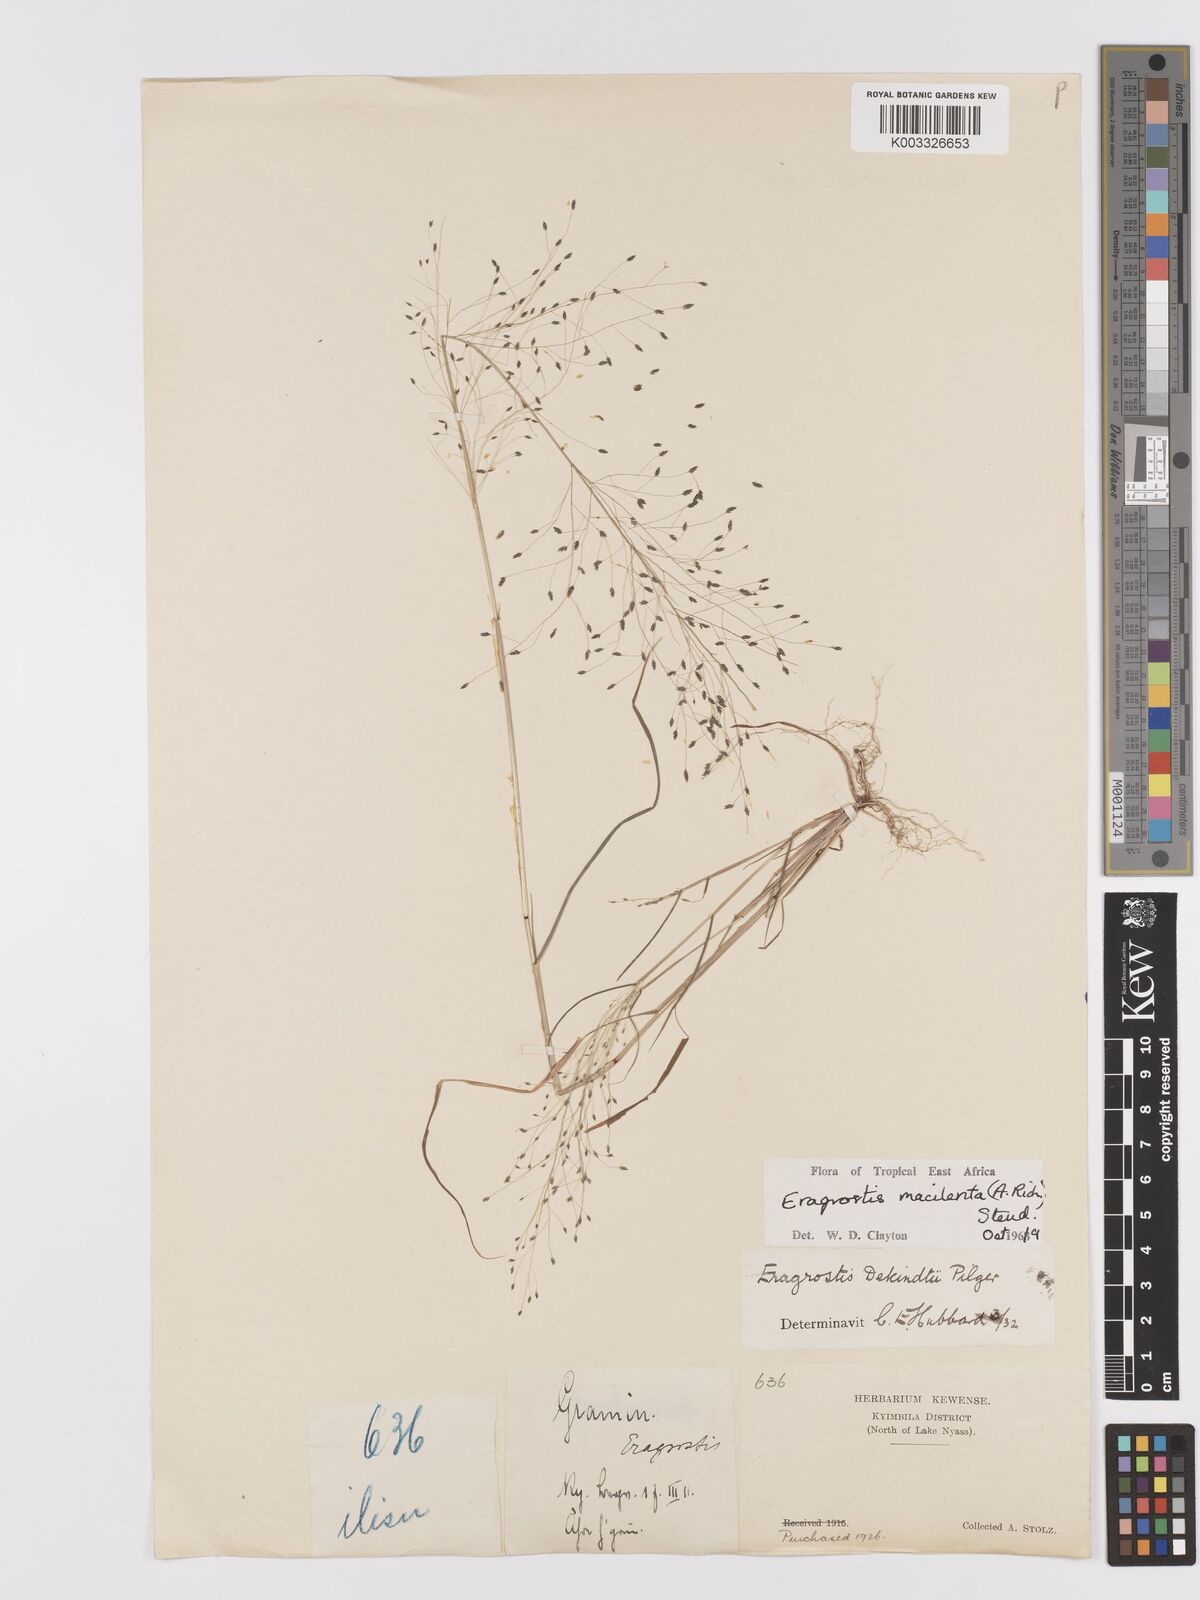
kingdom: Plantae
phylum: Tracheophyta
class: Liliopsida
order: Poales
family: Poaceae
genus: Eragrostis
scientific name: Eragrostis macilenta
